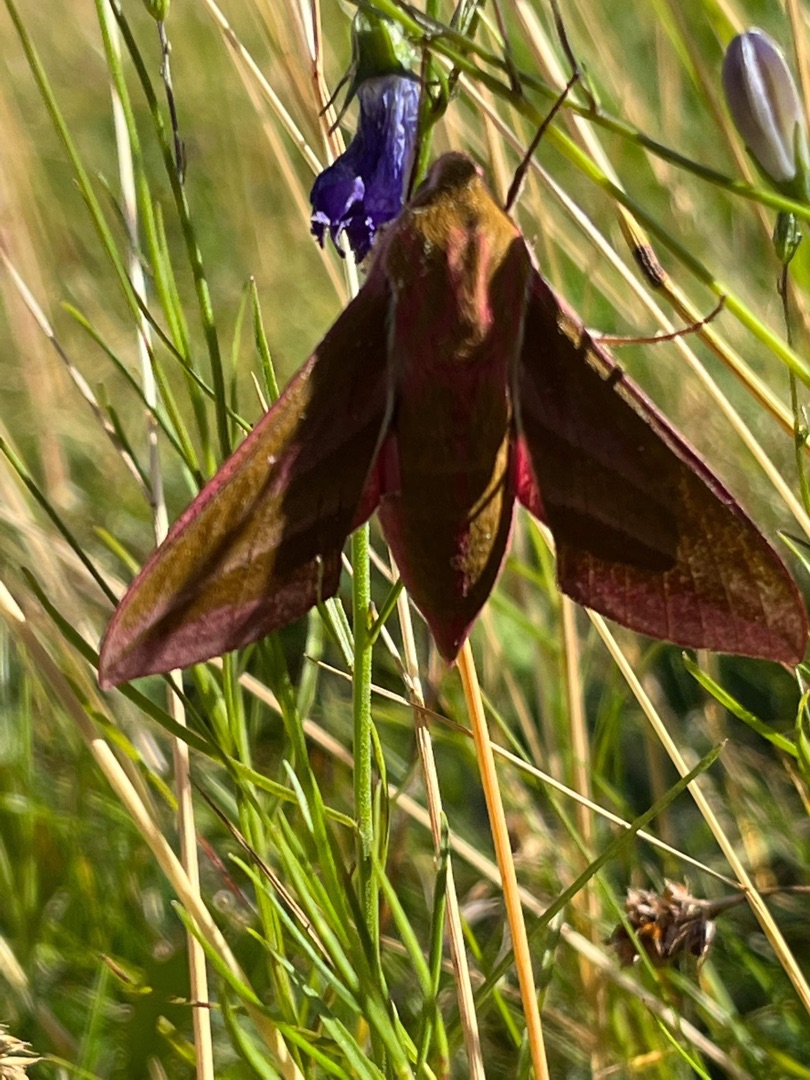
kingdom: Animalia
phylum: Arthropoda
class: Insecta
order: Lepidoptera
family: Sphingidae
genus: Deilephila
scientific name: Deilephila elpenor
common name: Dueurtsværmer
